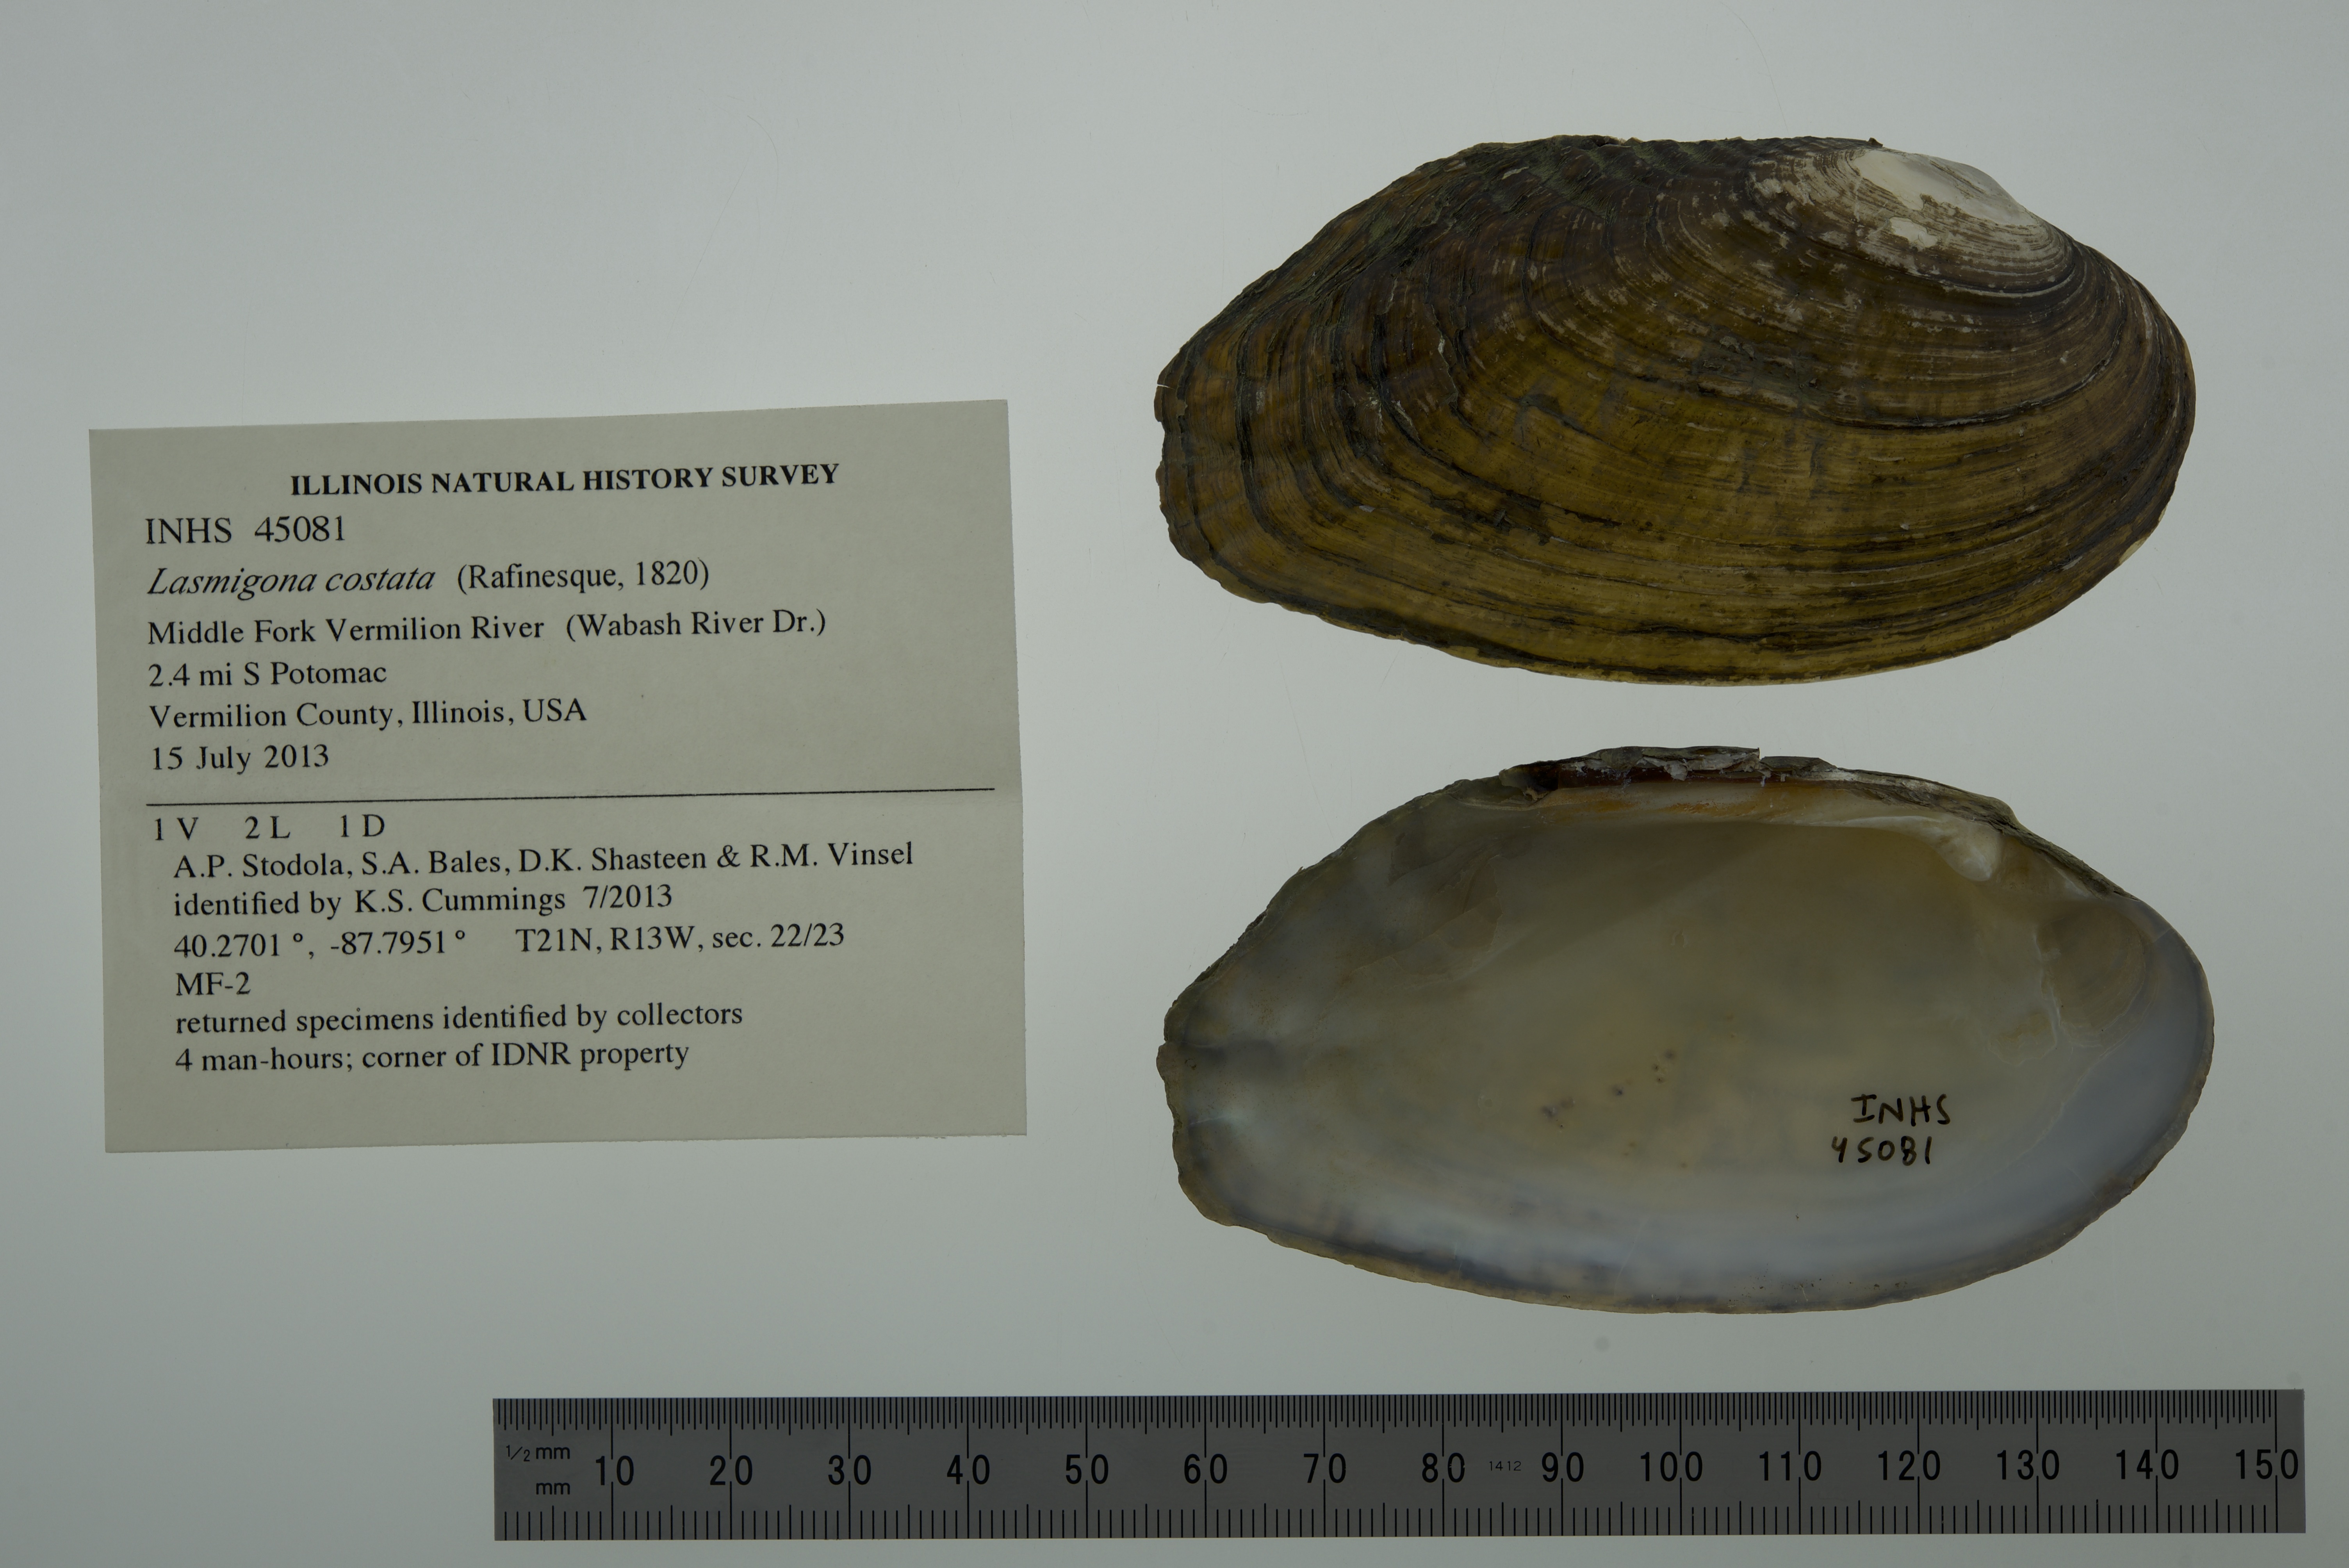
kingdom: Animalia
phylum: Mollusca
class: Bivalvia
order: Unionida
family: Unionidae
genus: Lasmigona
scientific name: Lasmigona costata
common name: Flutedshell
